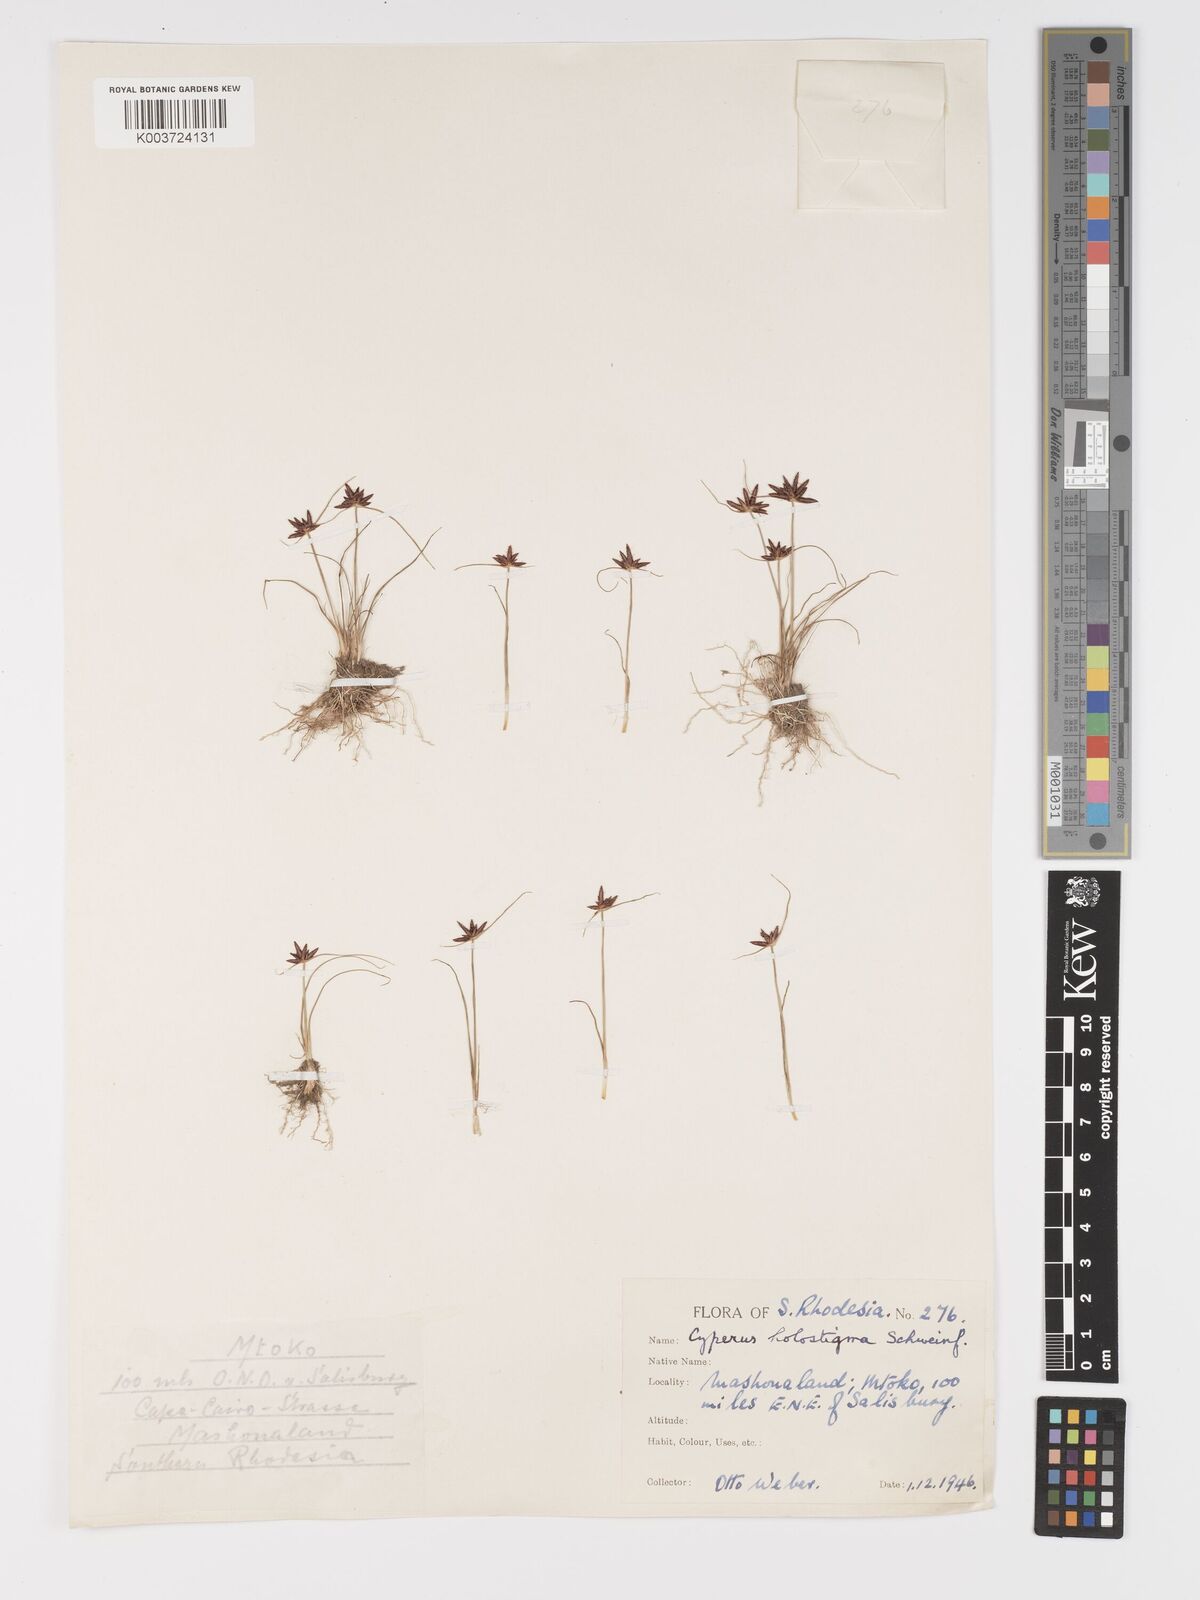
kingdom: Plantae
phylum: Tracheophyta
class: Liliopsida
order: Poales
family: Cyperaceae
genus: Cyperus
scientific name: Cyperus holostigma
